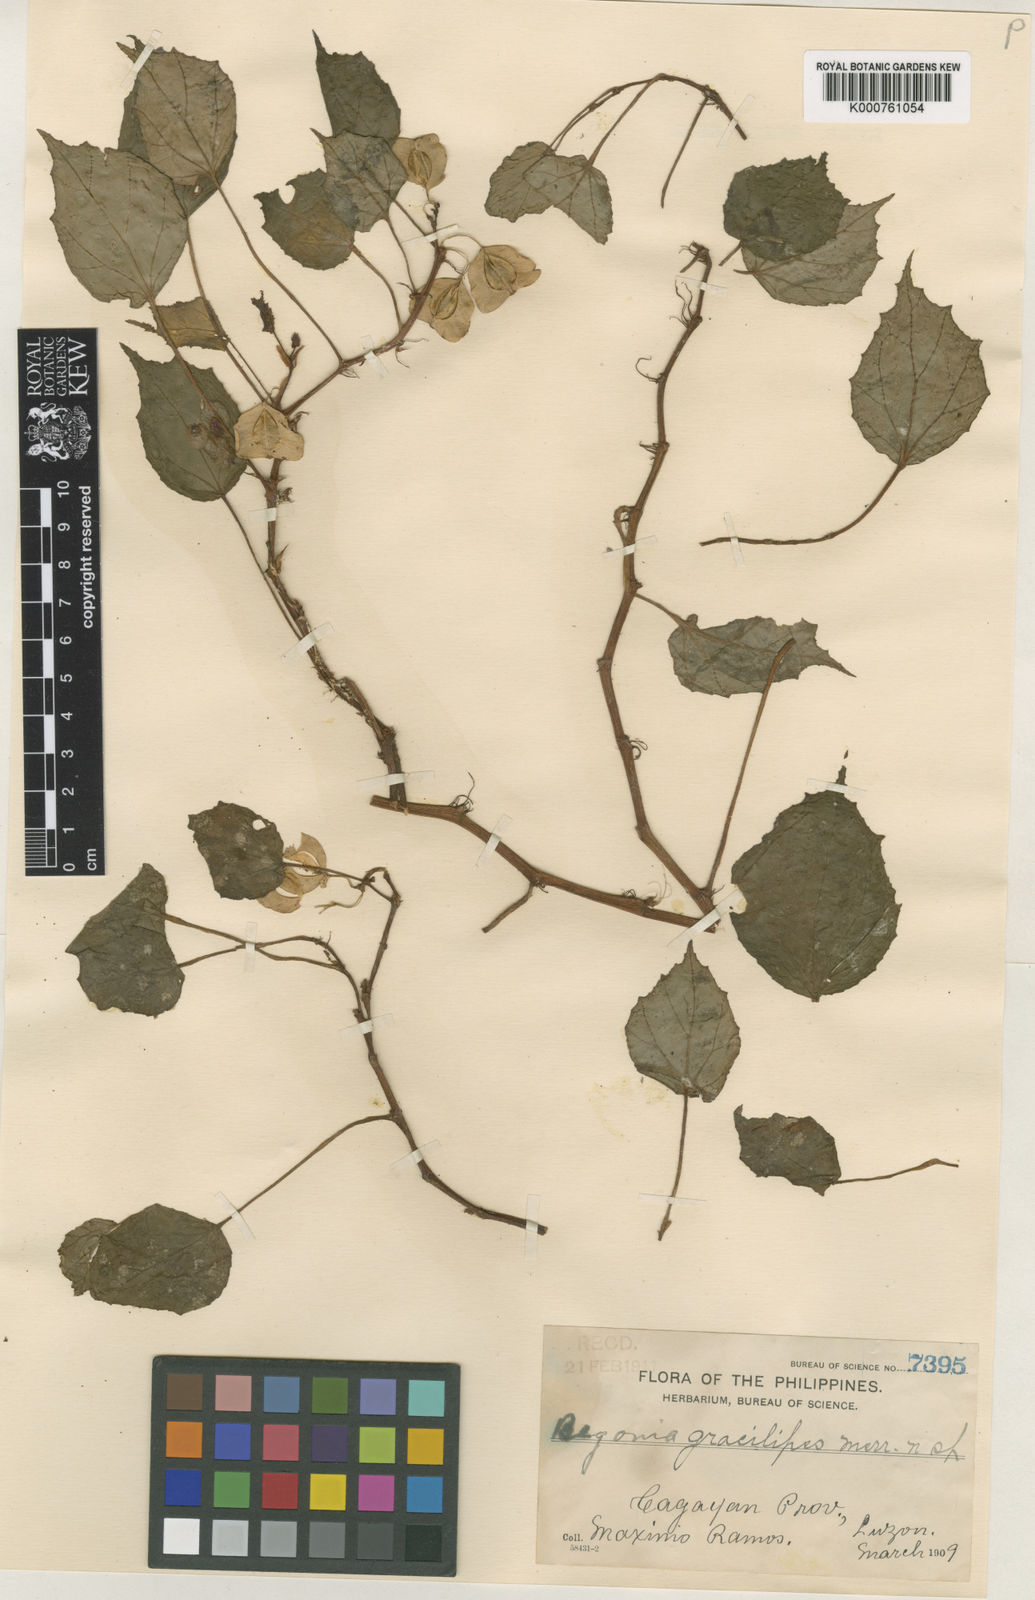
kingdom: Plantae
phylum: Tracheophyta
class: Magnoliopsida
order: Cucurbitales
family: Begoniaceae
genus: Begonia
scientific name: Begonia gracilipes
